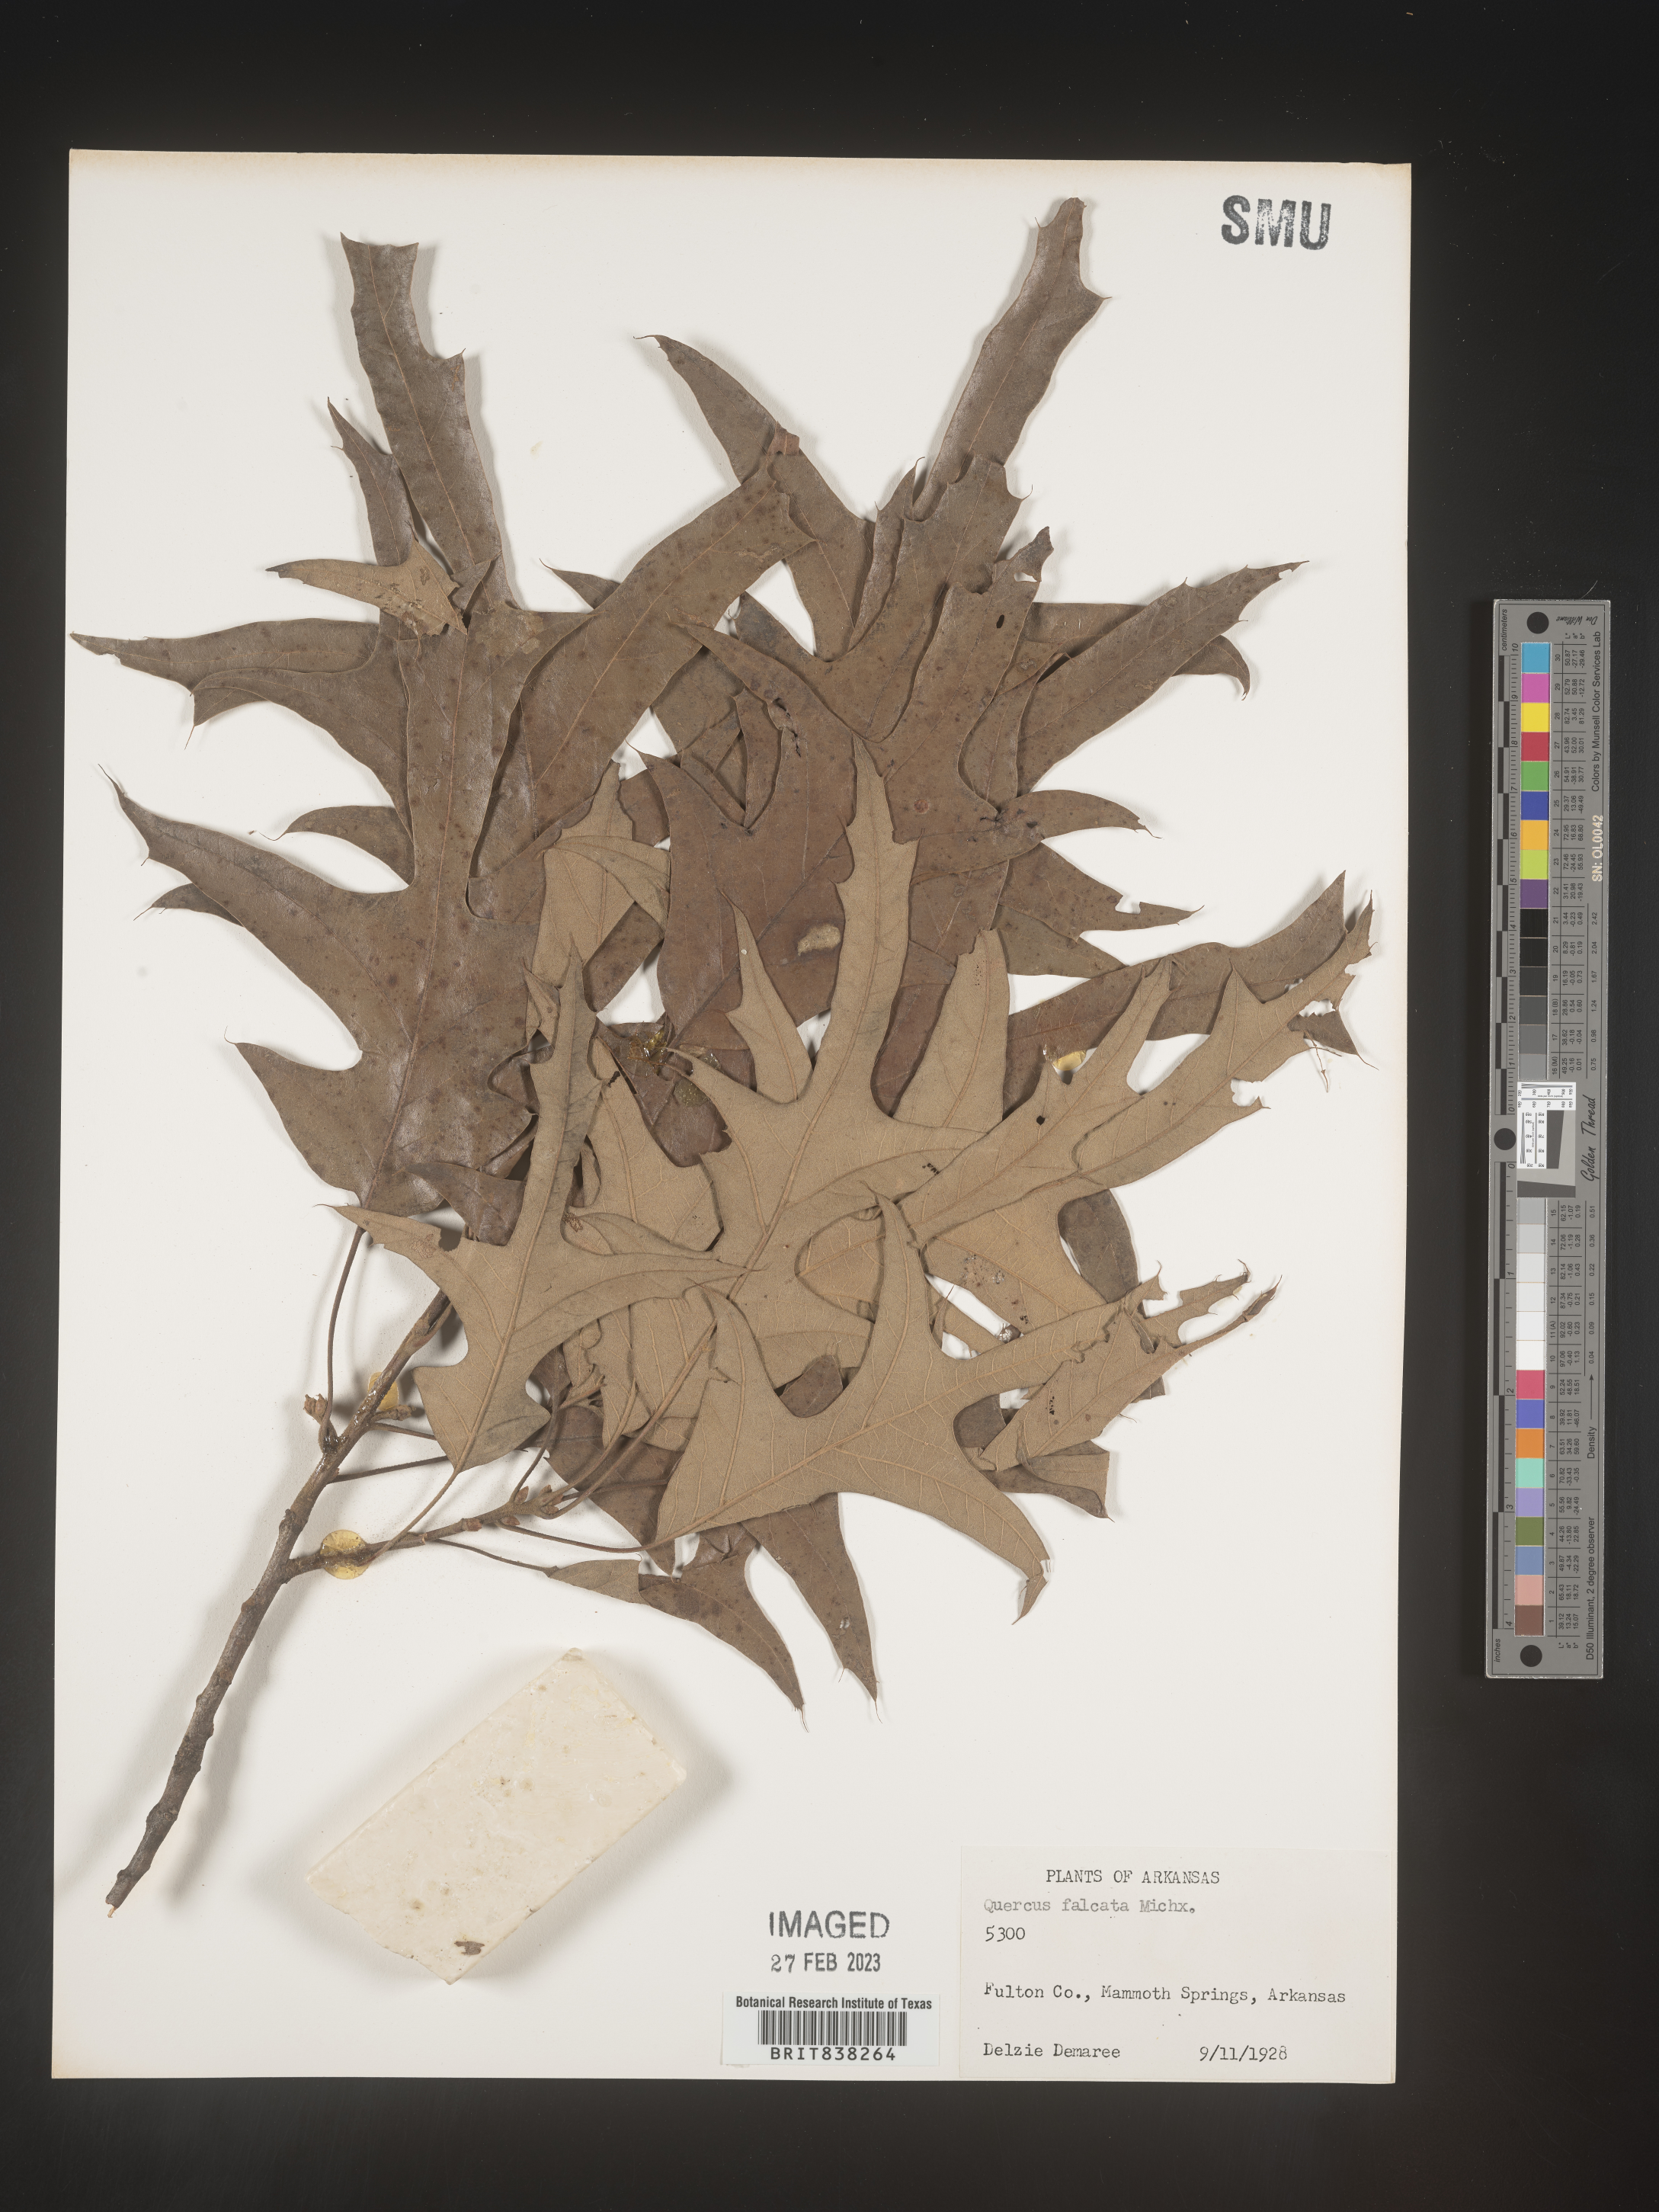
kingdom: Plantae
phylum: Tracheophyta
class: Magnoliopsida
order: Fagales
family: Fagaceae
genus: Quercus
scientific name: Quercus falcata
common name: Southern red oak
